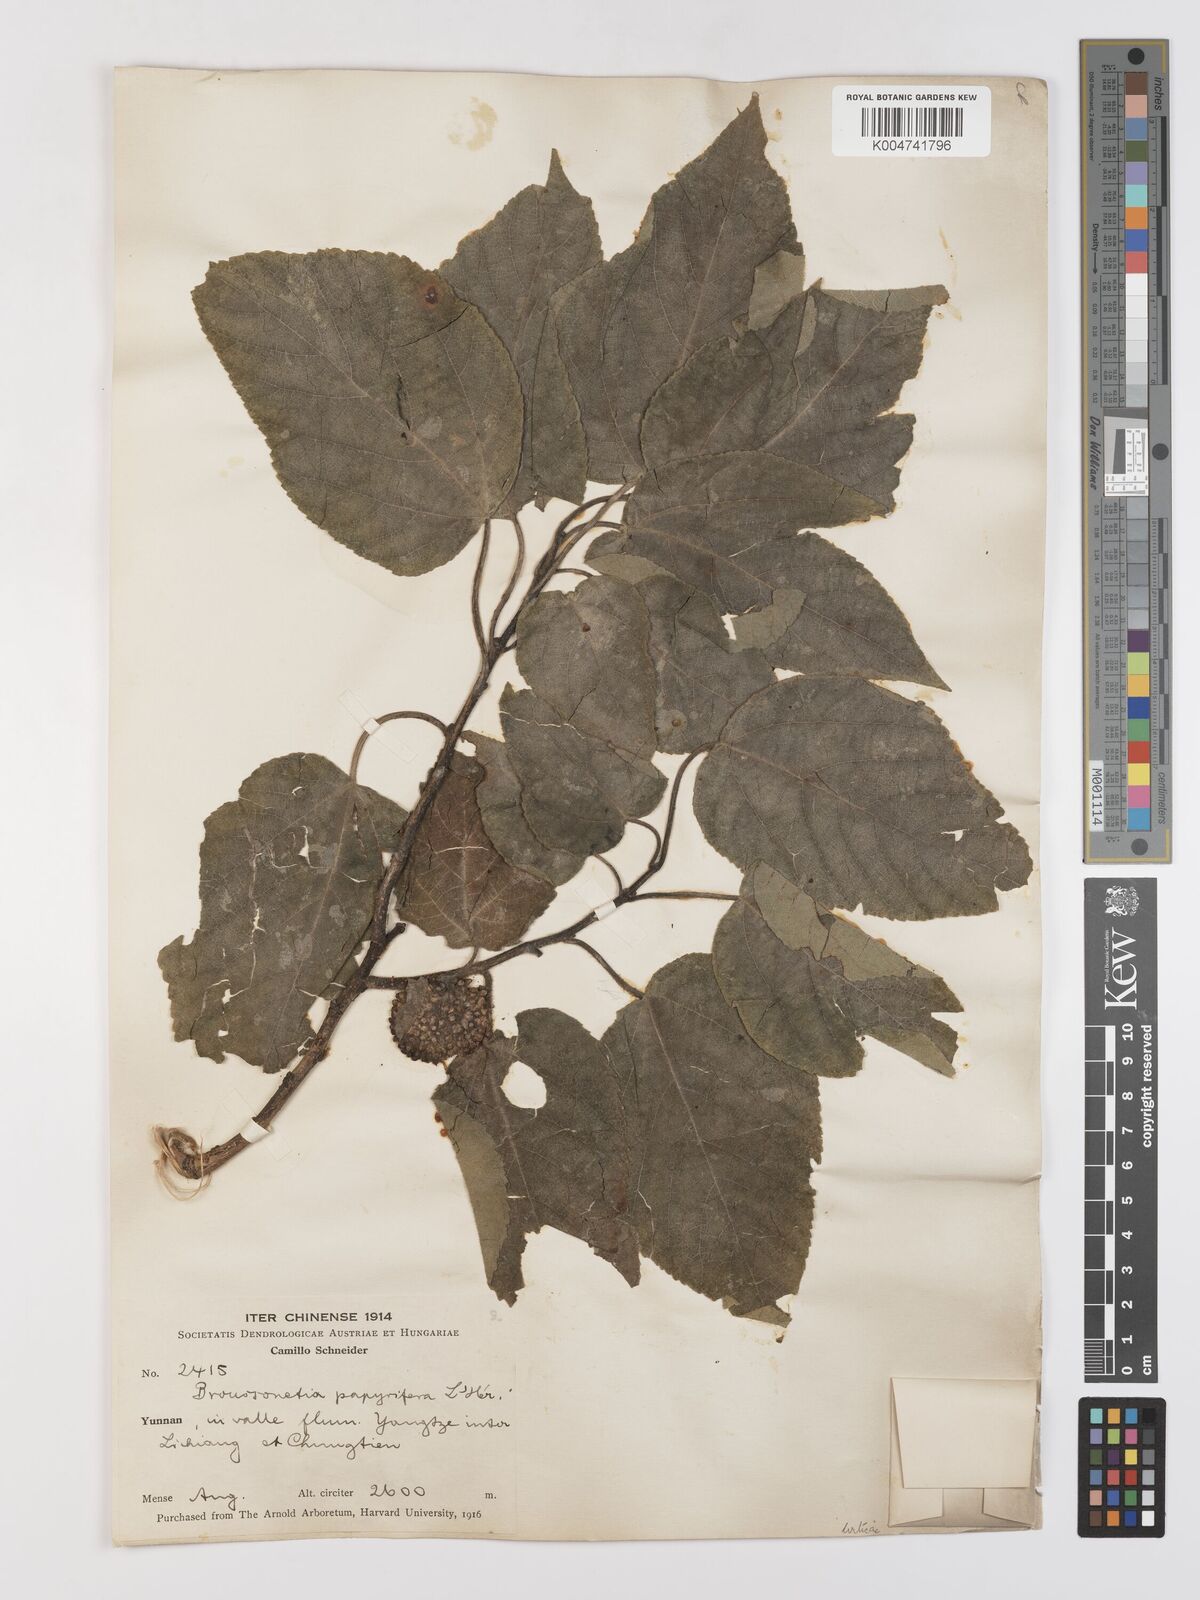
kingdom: Plantae
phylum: Tracheophyta
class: Magnoliopsida
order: Rosales
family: Moraceae
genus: Broussonetia
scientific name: Broussonetia papyrifera
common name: Paper mulberry
